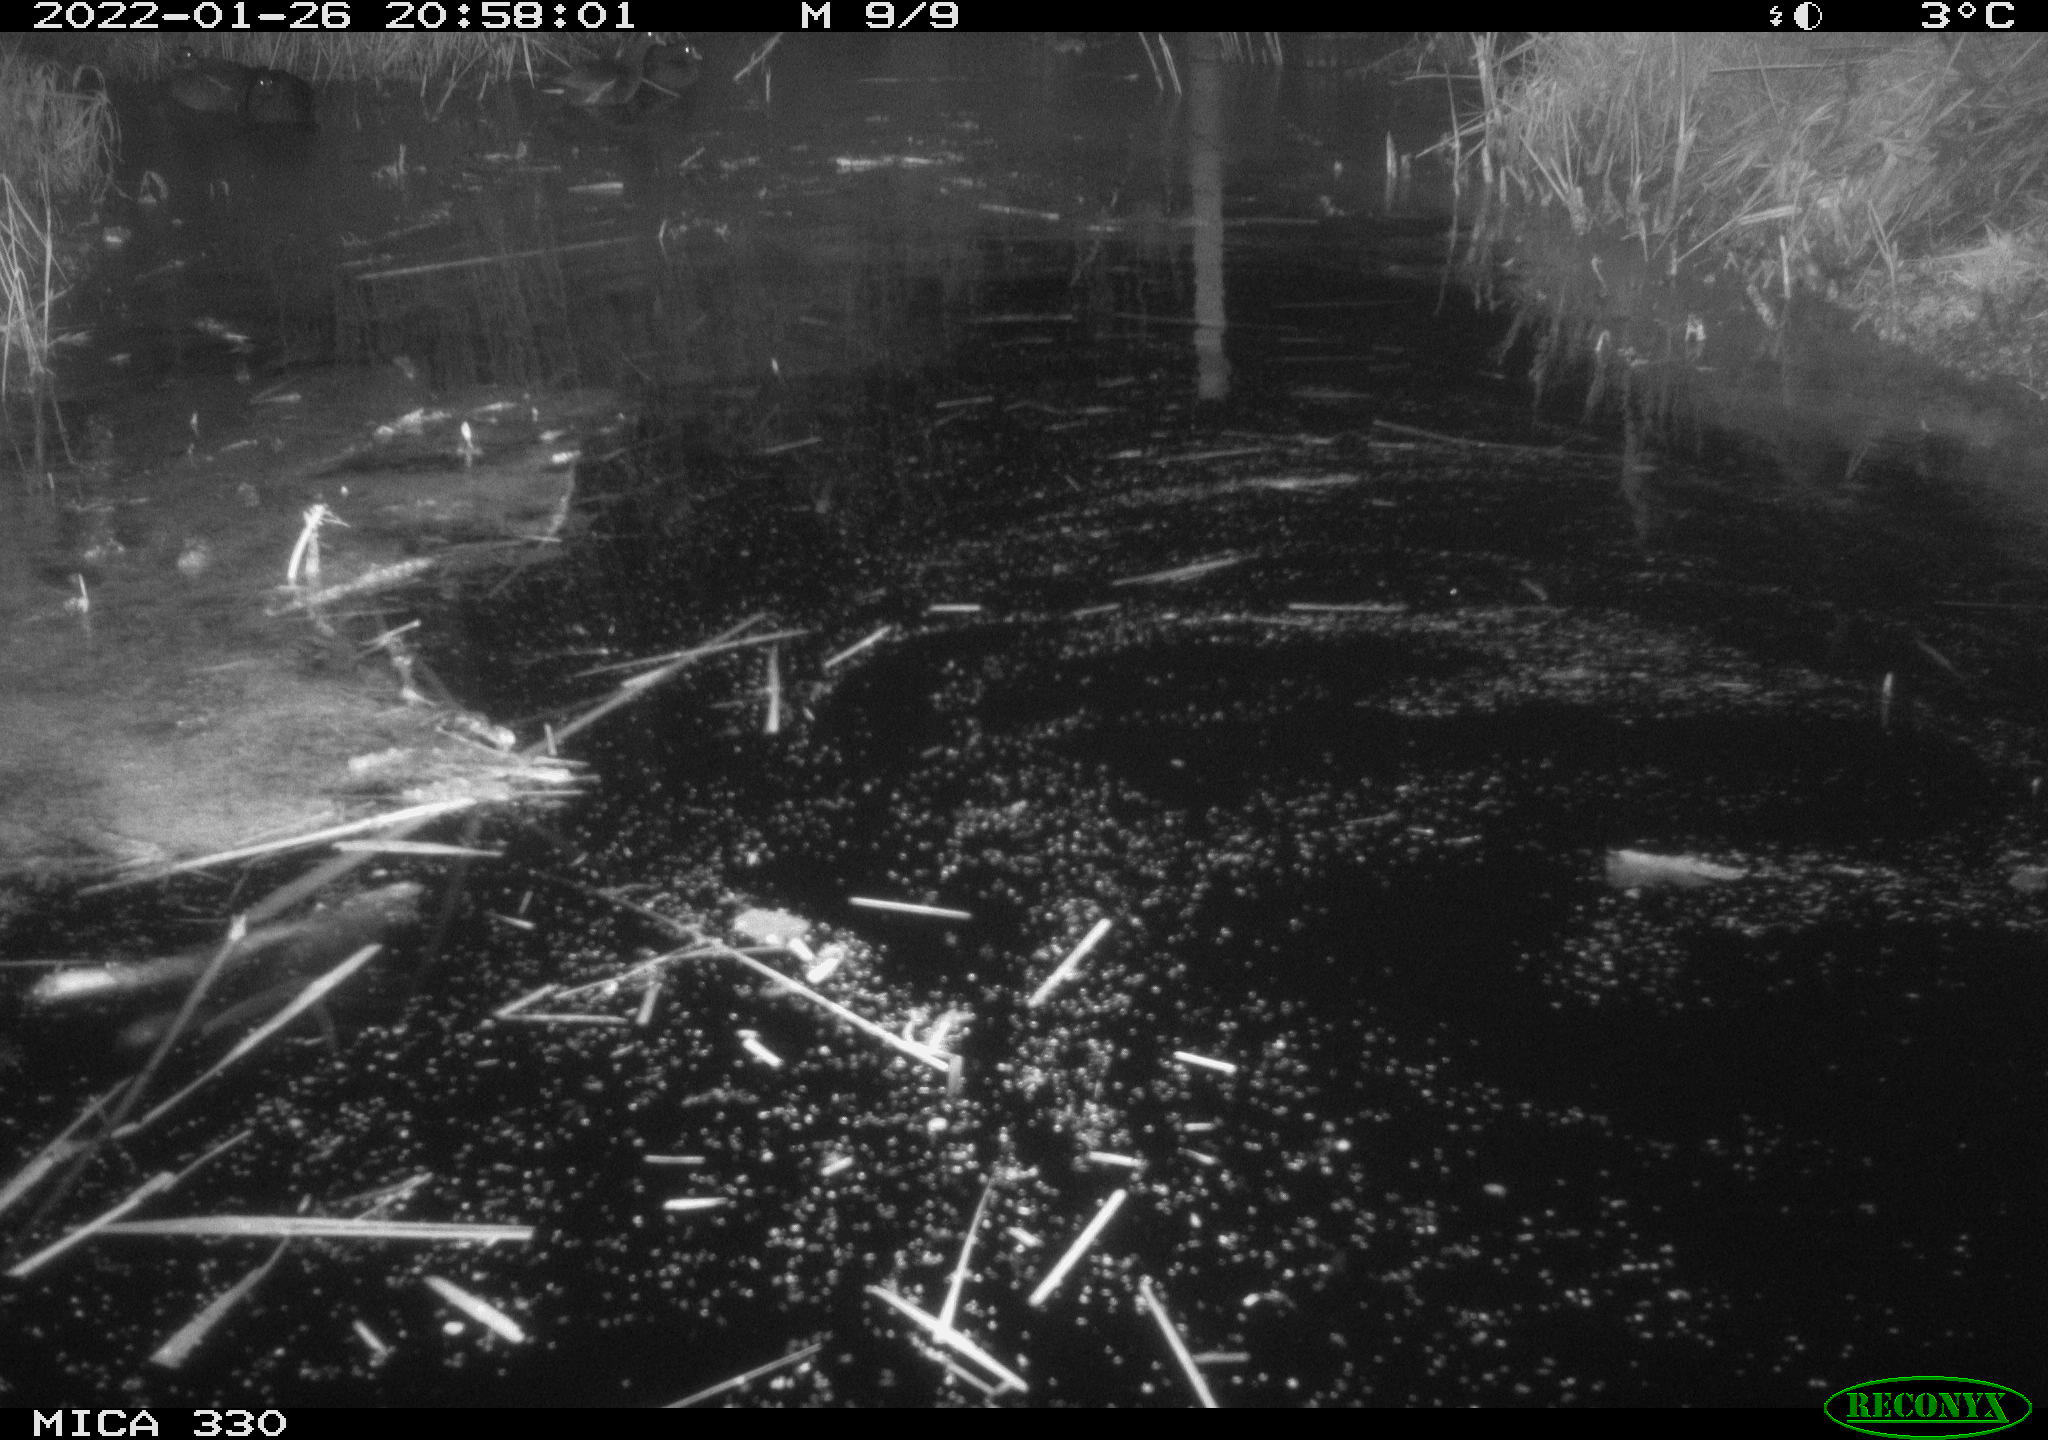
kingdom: Animalia
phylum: Chordata
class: Aves
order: Gruiformes
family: Rallidae
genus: Gallinula
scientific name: Gallinula chloropus
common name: Common moorhen
